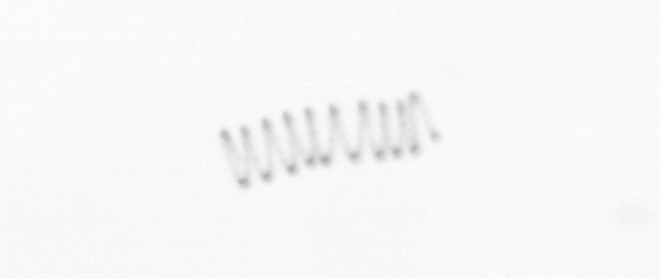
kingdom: Chromista
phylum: Ochrophyta
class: Bacillariophyceae
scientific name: Bacillariophyceae
